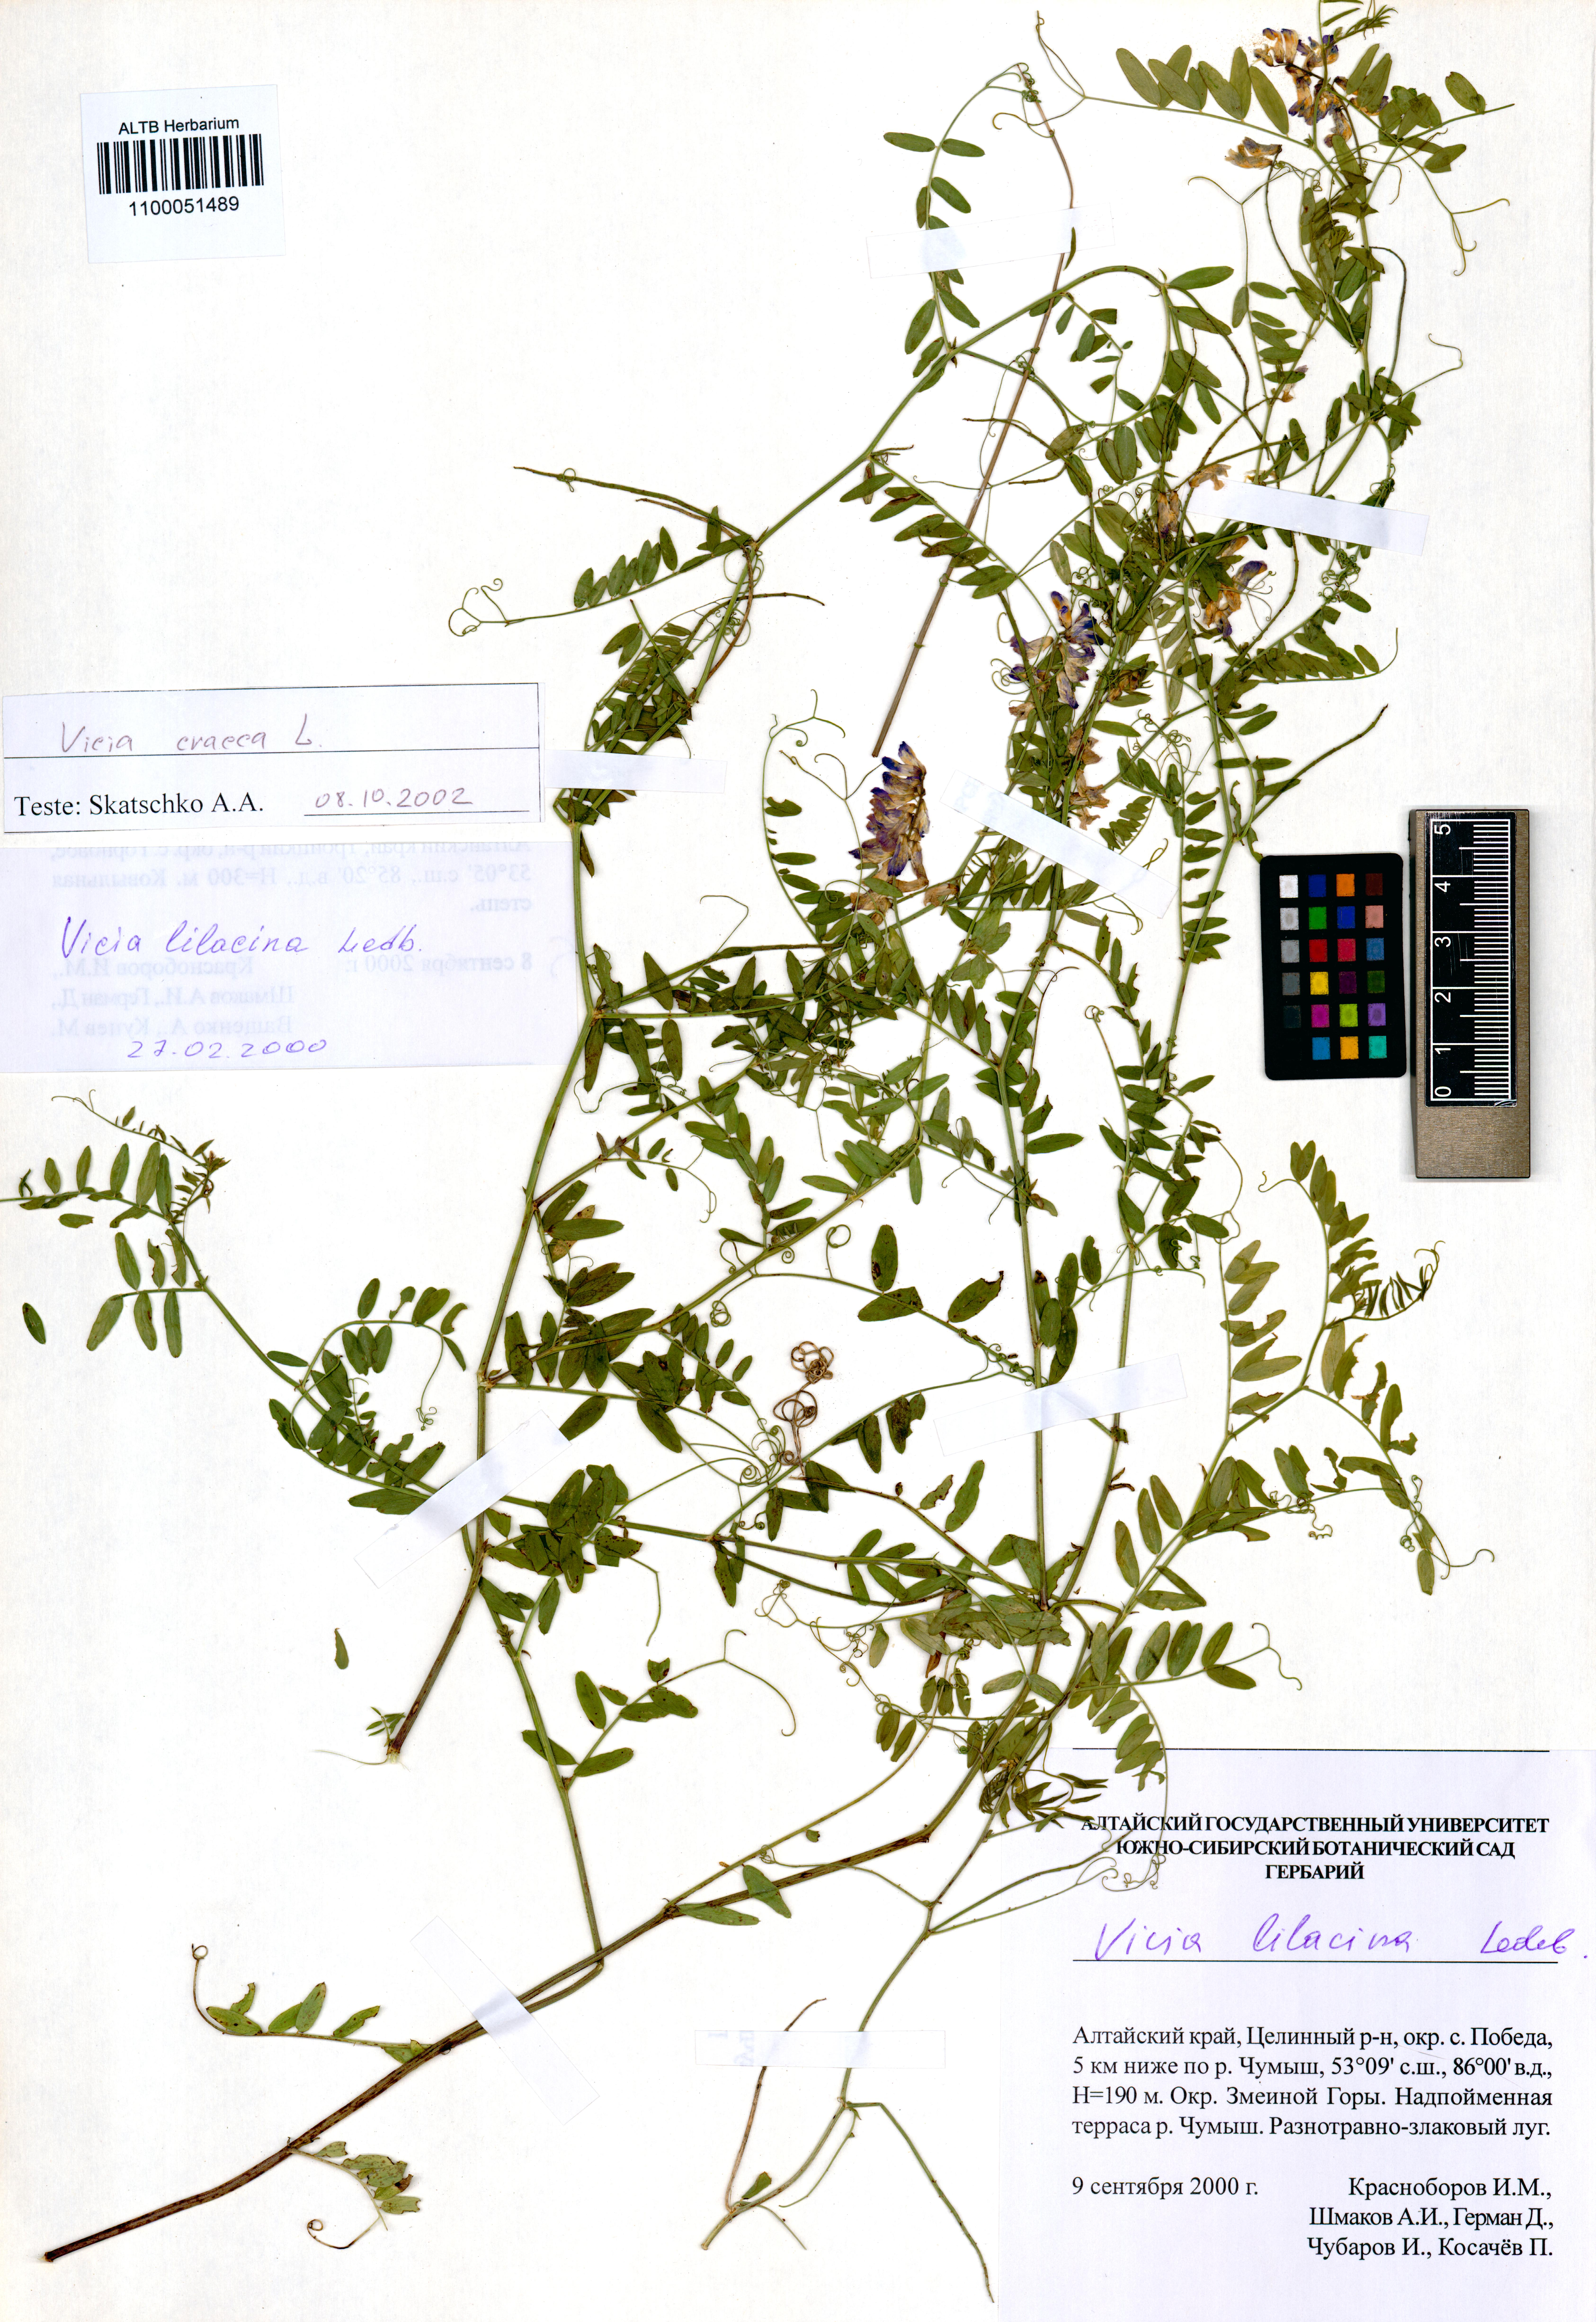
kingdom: Plantae
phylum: Tracheophyta
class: Magnoliopsida
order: Fabales
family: Fabaceae
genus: Vicia
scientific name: Vicia lilacina
